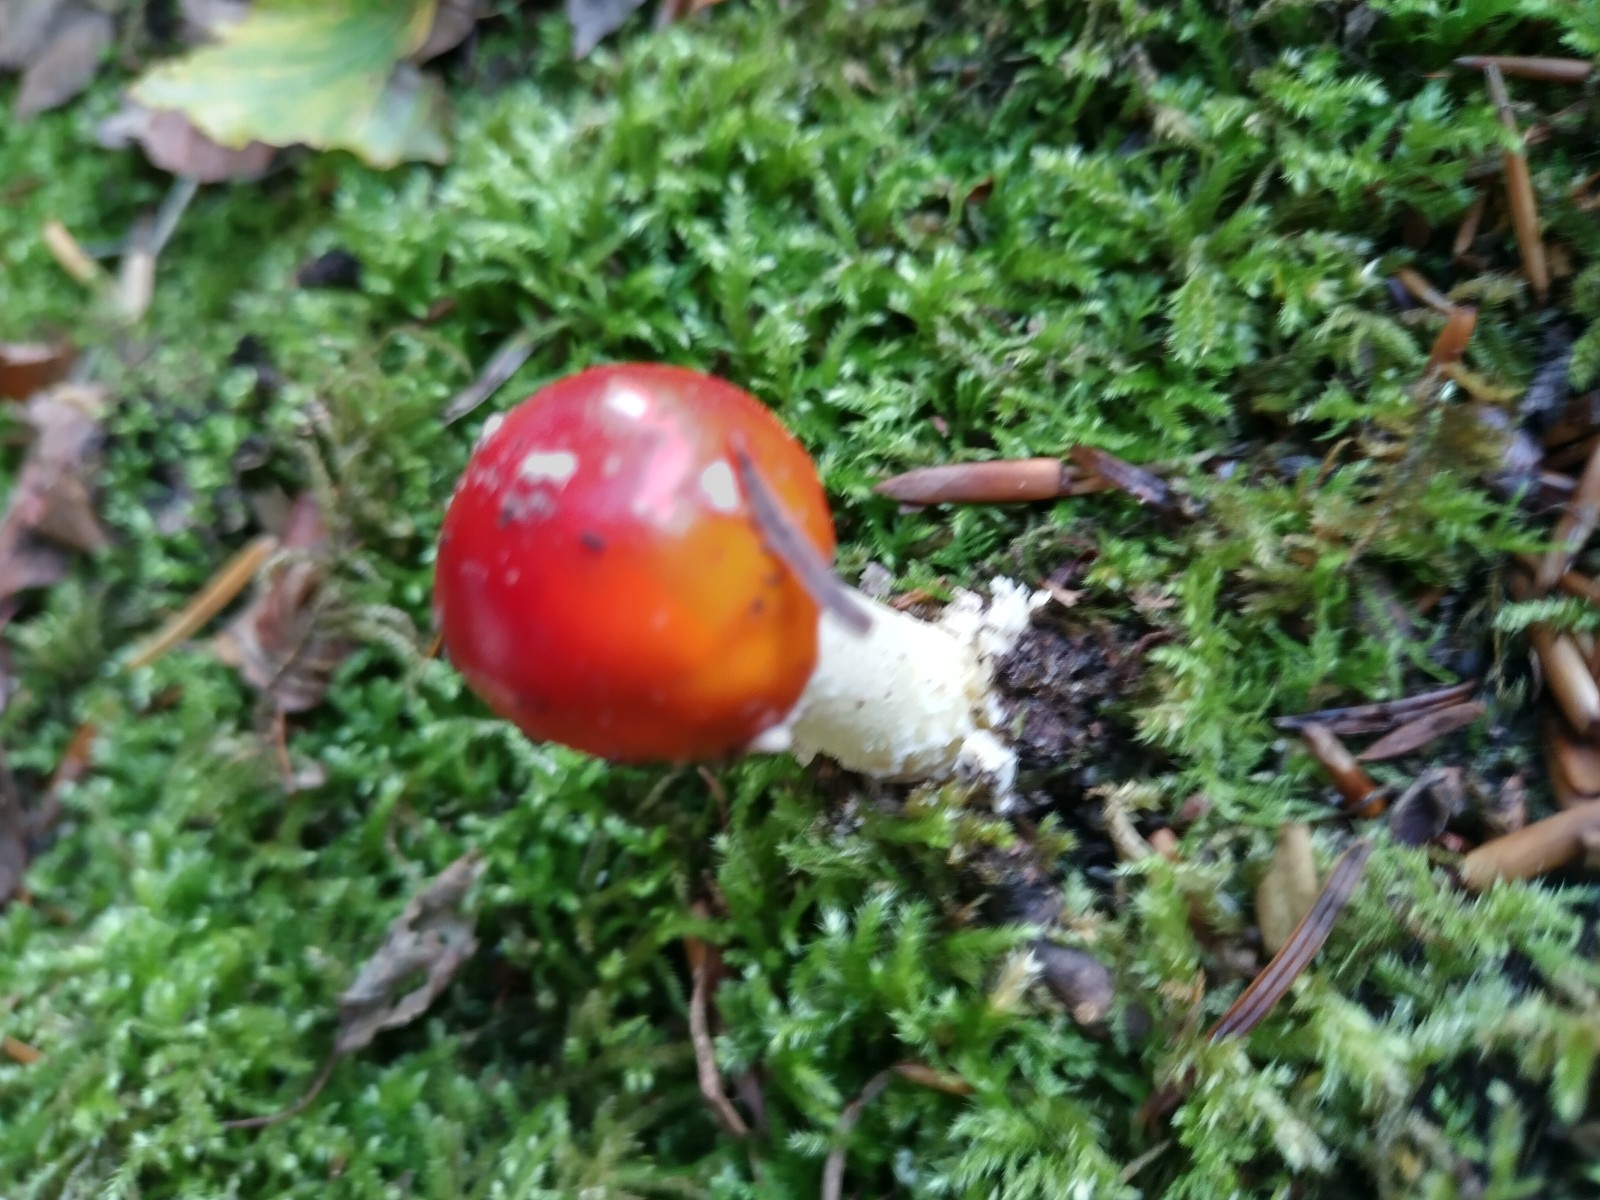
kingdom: Fungi
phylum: Basidiomycota
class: Agaricomycetes
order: Agaricales
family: Amanitaceae
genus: Amanita
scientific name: Amanita muscaria
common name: rød fluesvamp
